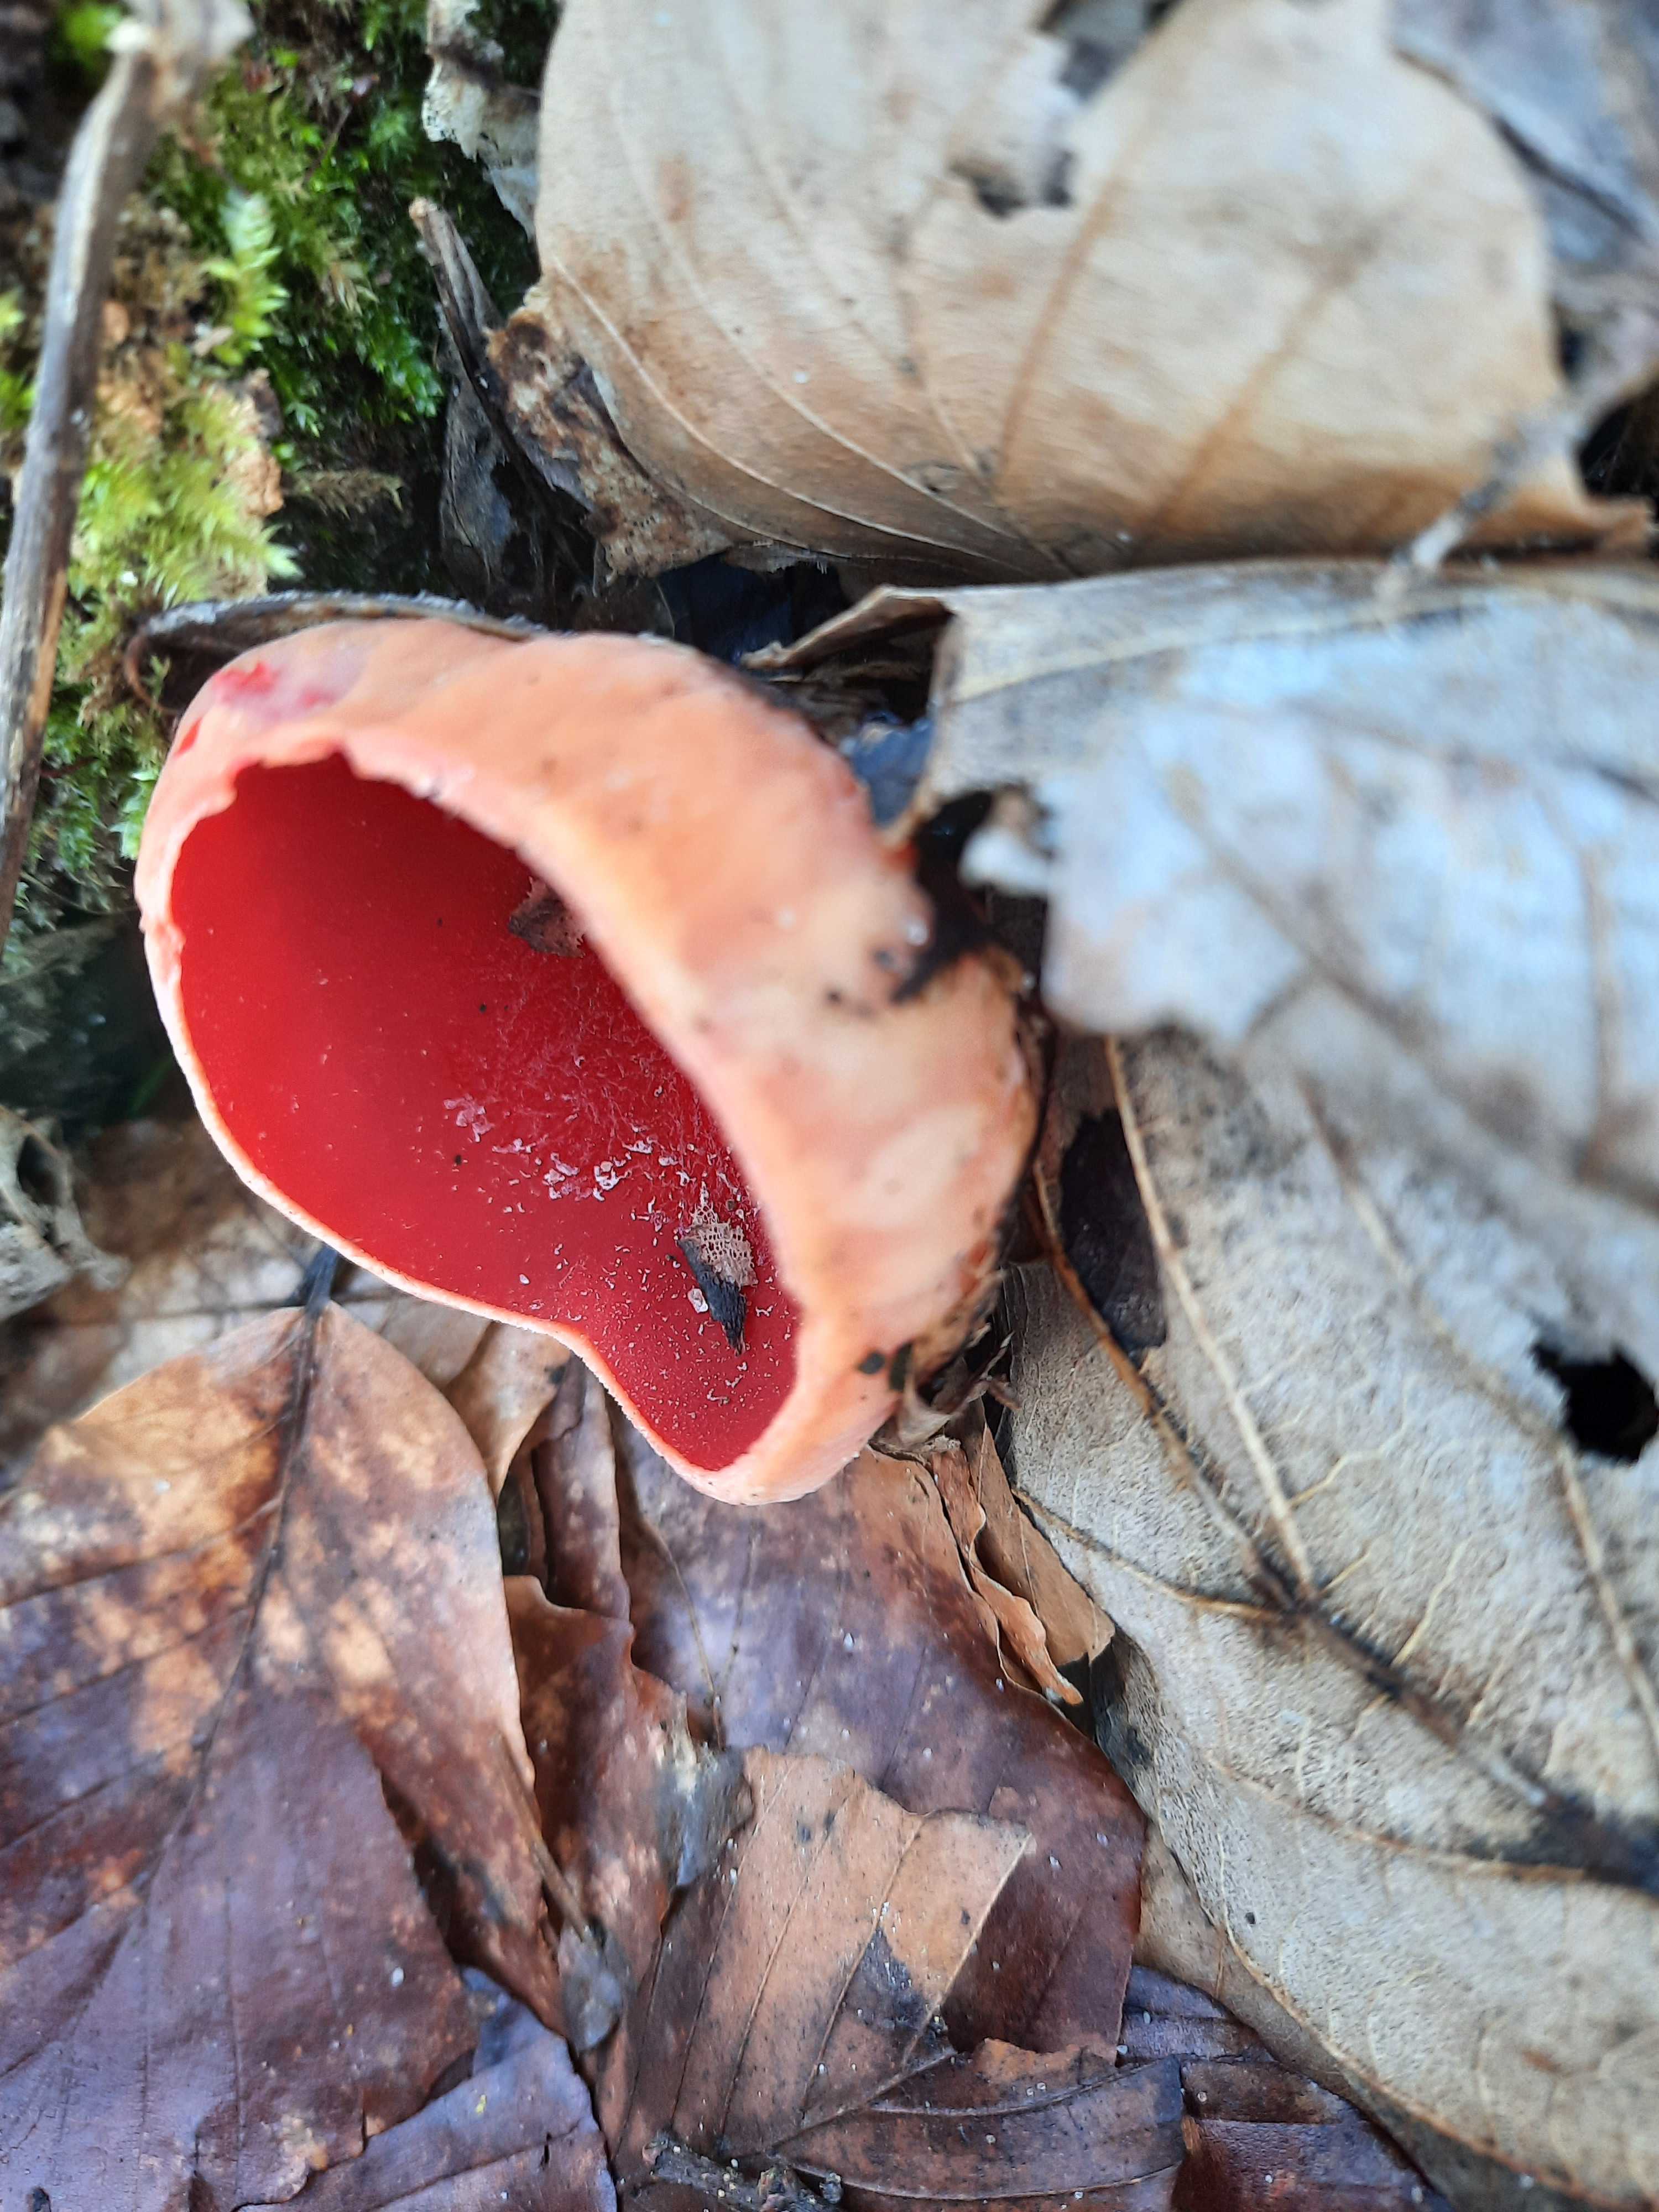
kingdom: Fungi
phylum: Ascomycota
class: Pezizomycetes
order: Pezizales
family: Sarcoscyphaceae
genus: Sarcoscypha
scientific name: Sarcoscypha austriaca
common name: krølhåret pragtbæger
